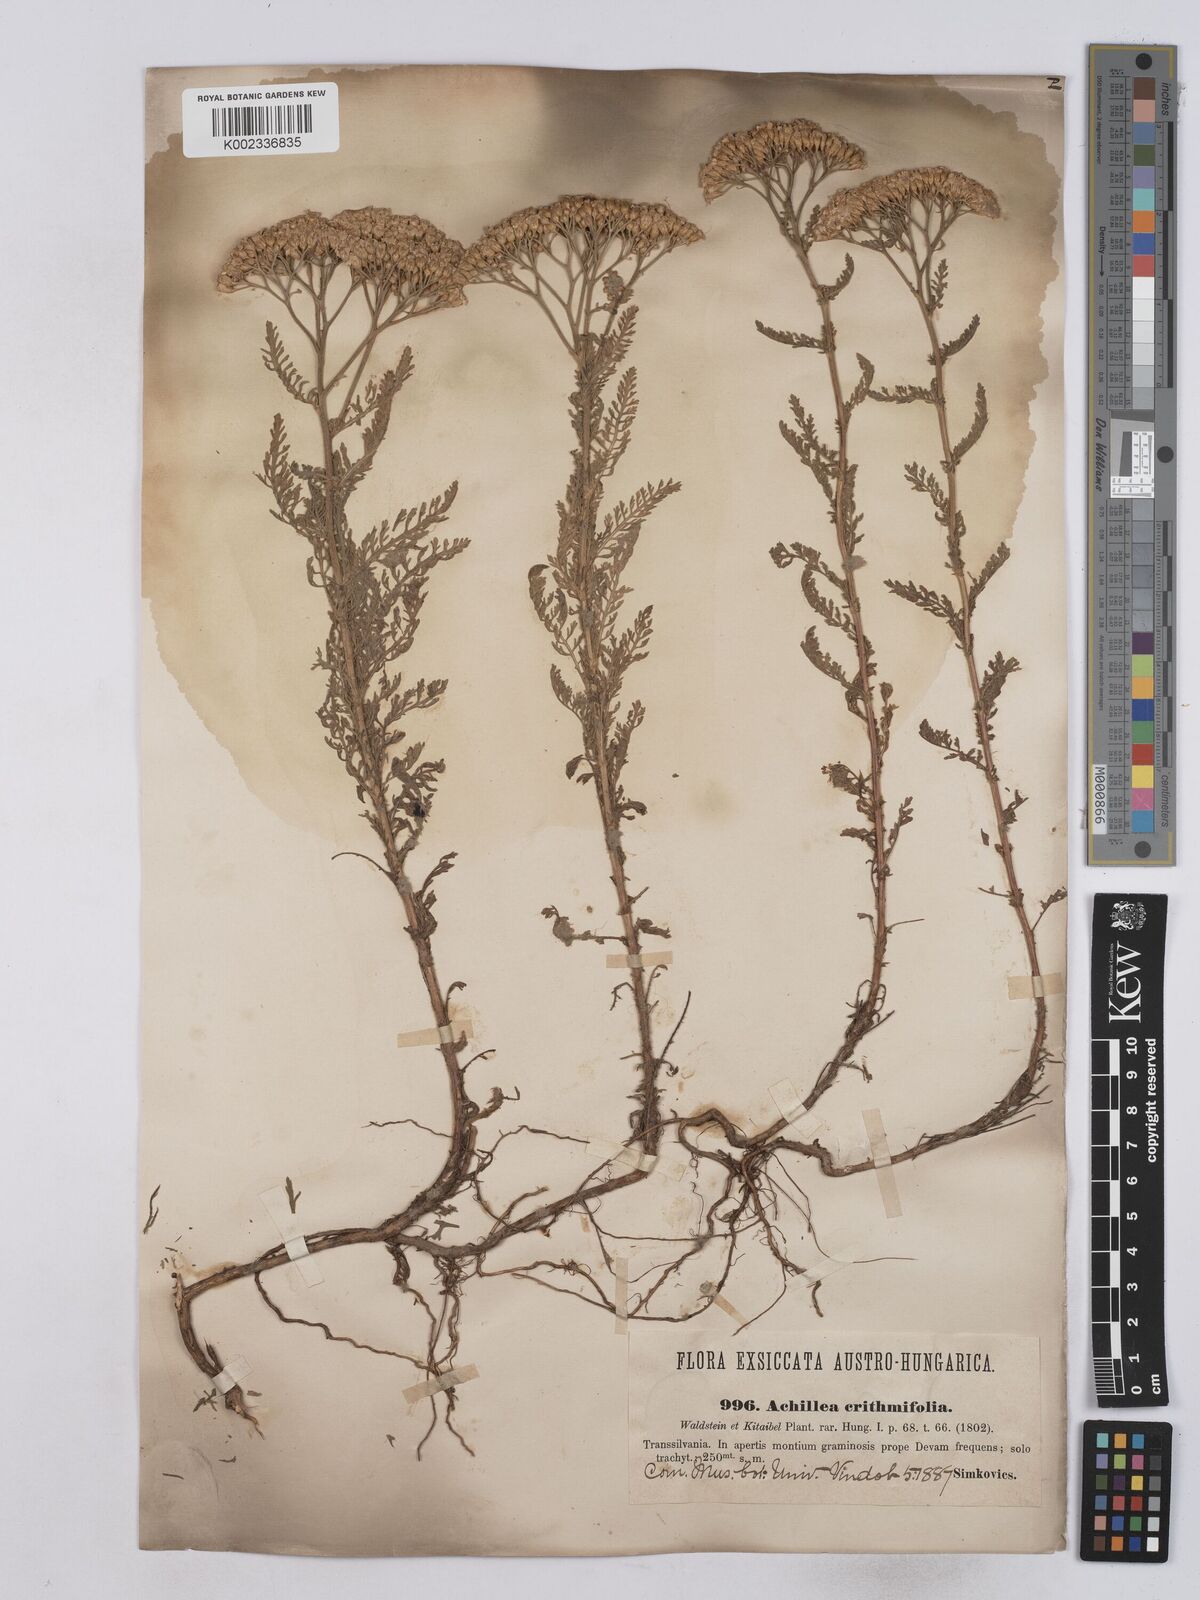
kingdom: Plantae
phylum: Tracheophyta
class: Magnoliopsida
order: Asterales
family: Asteraceae
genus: Achillea
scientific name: Achillea crithmifolia
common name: Yarrow
